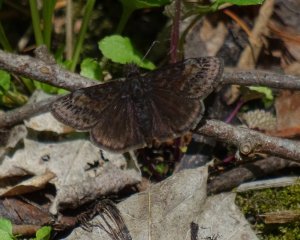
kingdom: Animalia
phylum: Arthropoda
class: Insecta
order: Lepidoptera
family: Hesperiidae
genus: Erynnis
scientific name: Erynnis
